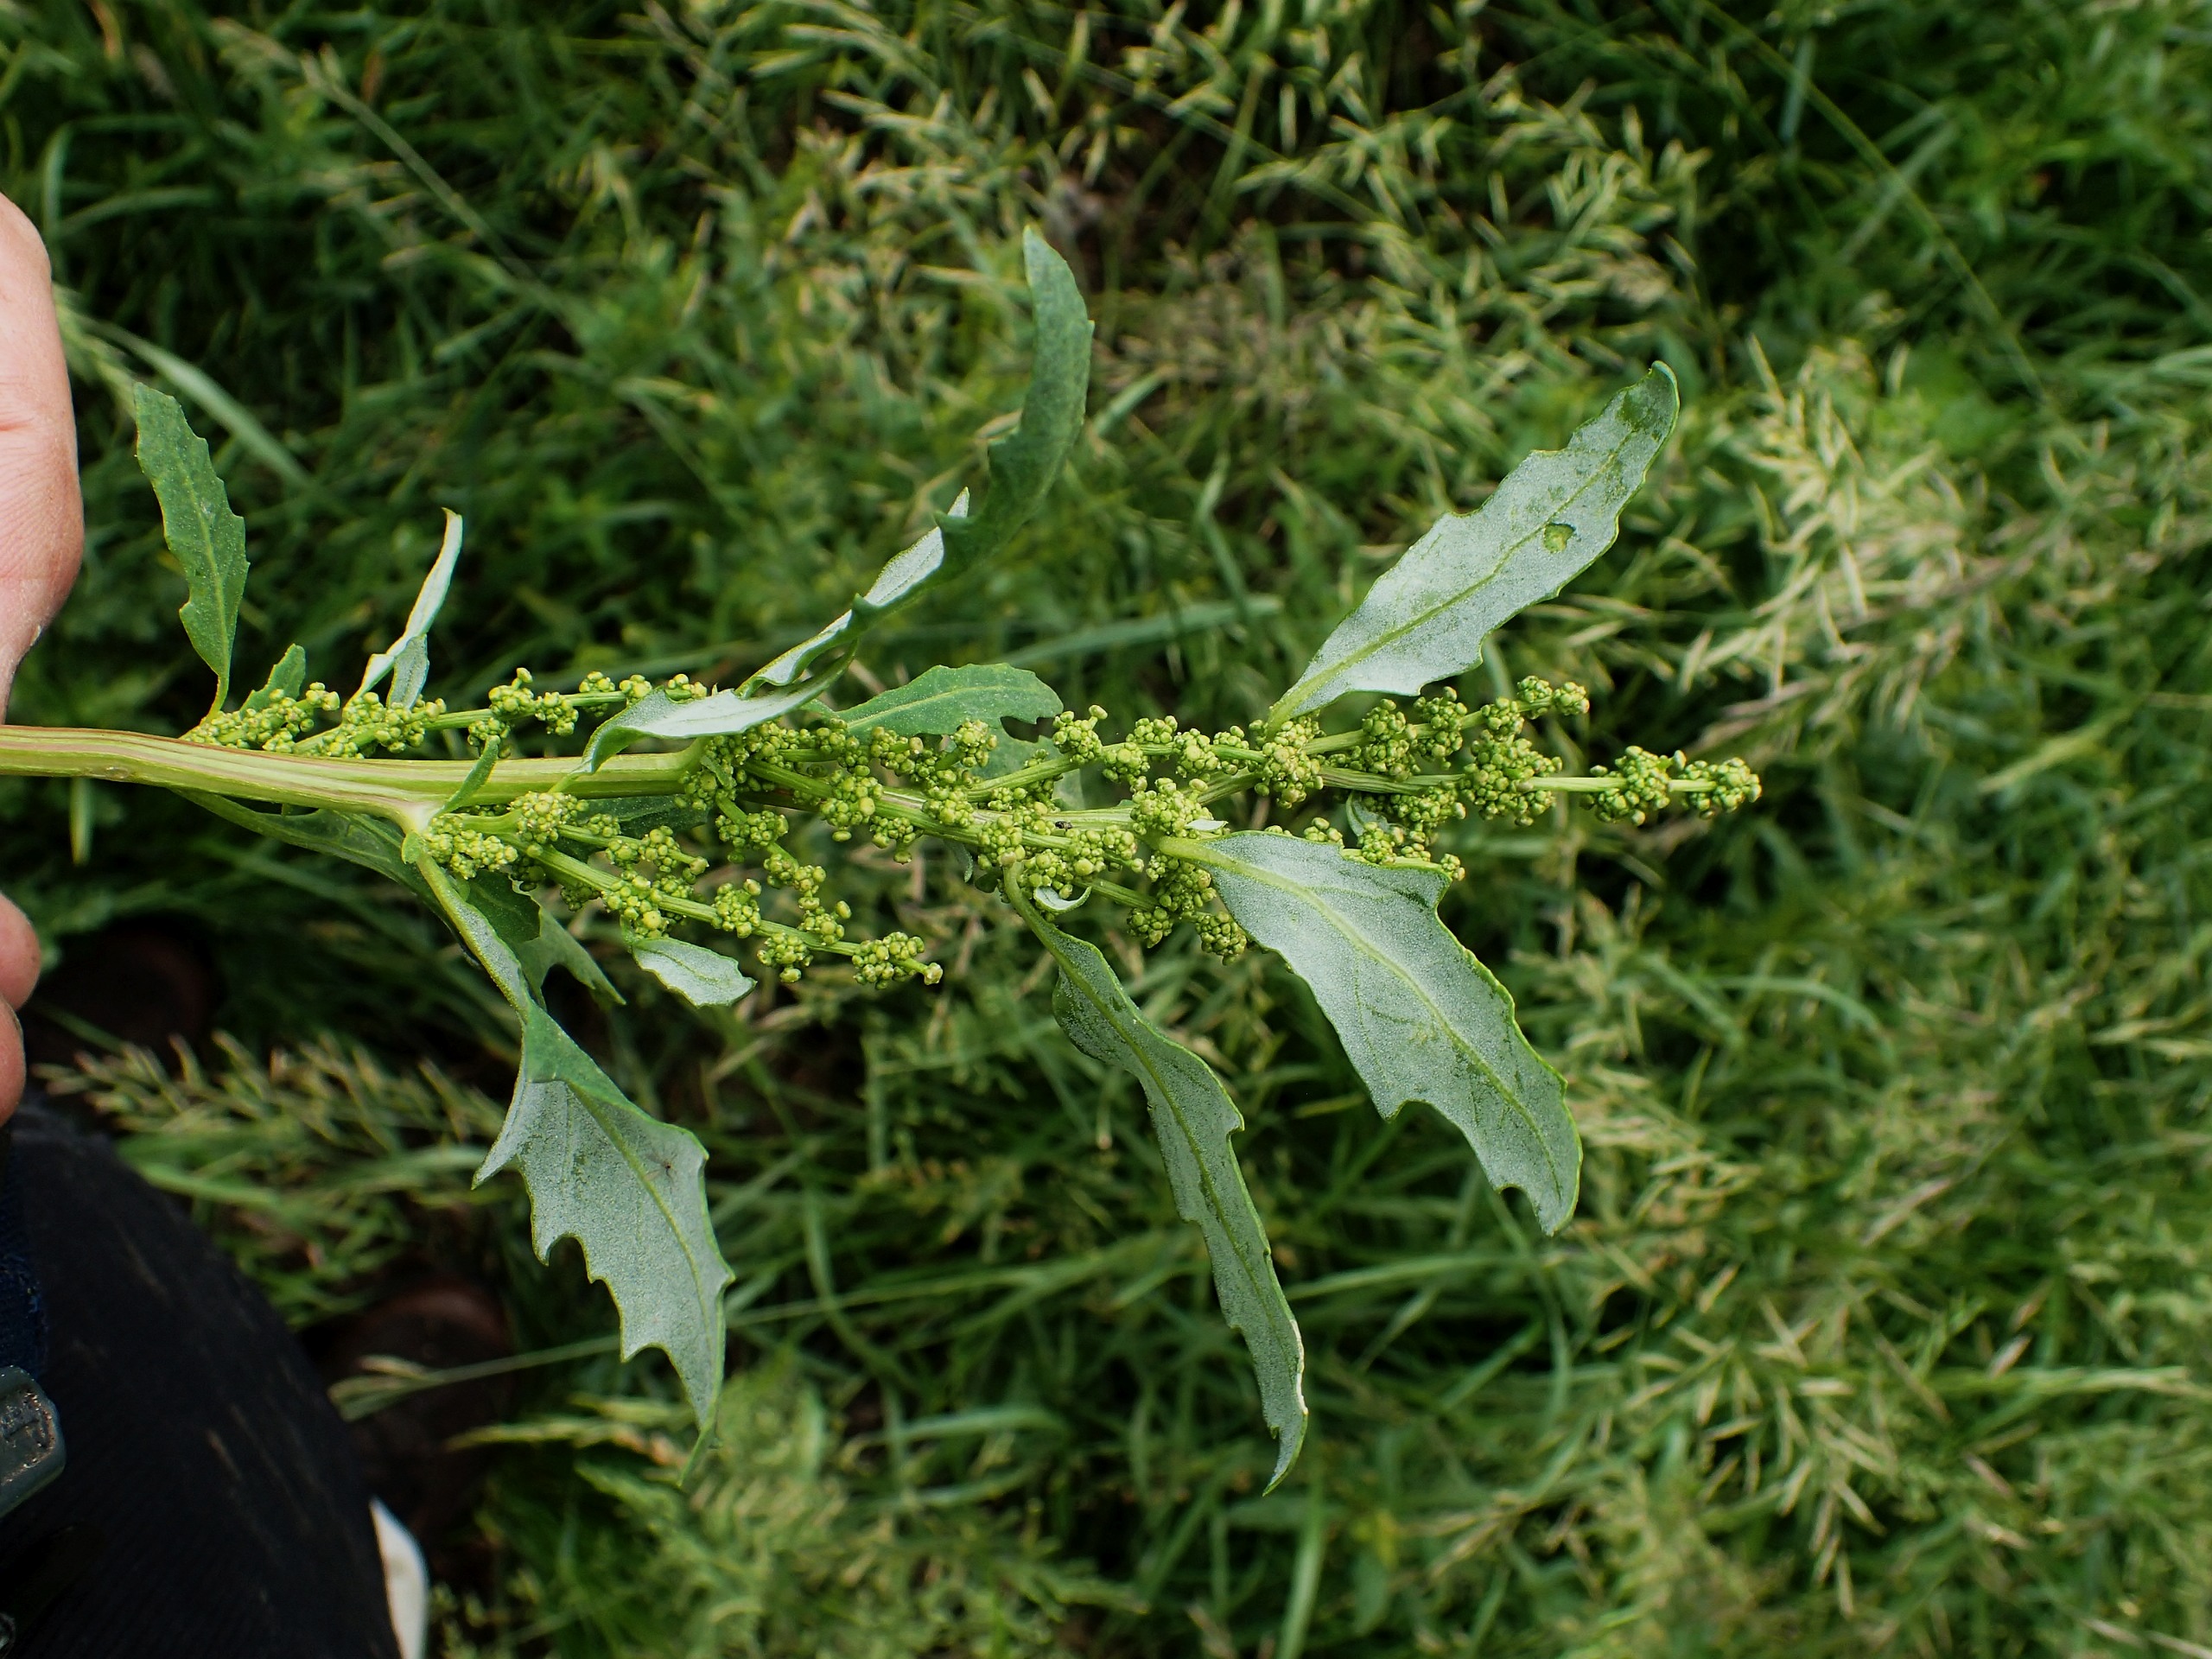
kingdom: Plantae
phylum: Tracheophyta
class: Magnoliopsida
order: Caryophyllales
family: Amaranthaceae
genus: Oxybasis
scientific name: Oxybasis glauca
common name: Blågrøn gåsefod
